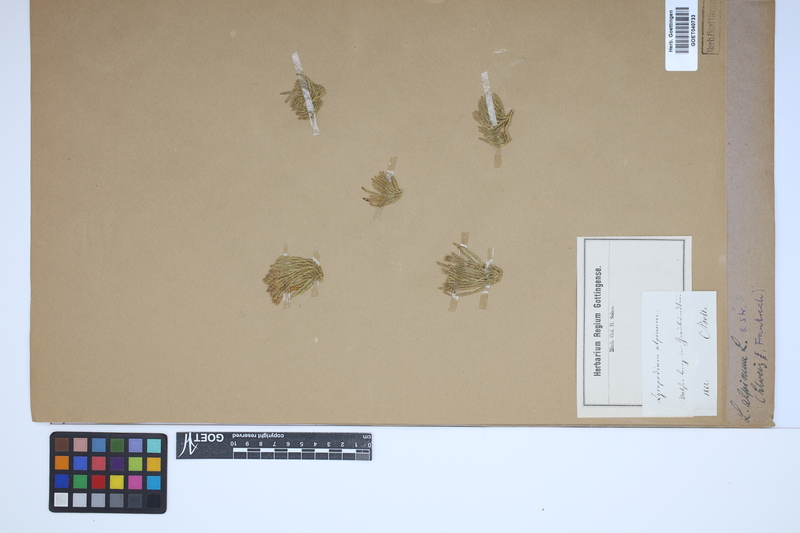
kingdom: Plantae
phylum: Tracheophyta
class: Lycopodiopsida
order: Lycopodiales
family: Lycopodiaceae
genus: Diphasiastrum
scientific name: Diphasiastrum alpinum
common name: Alpine clubmoss
